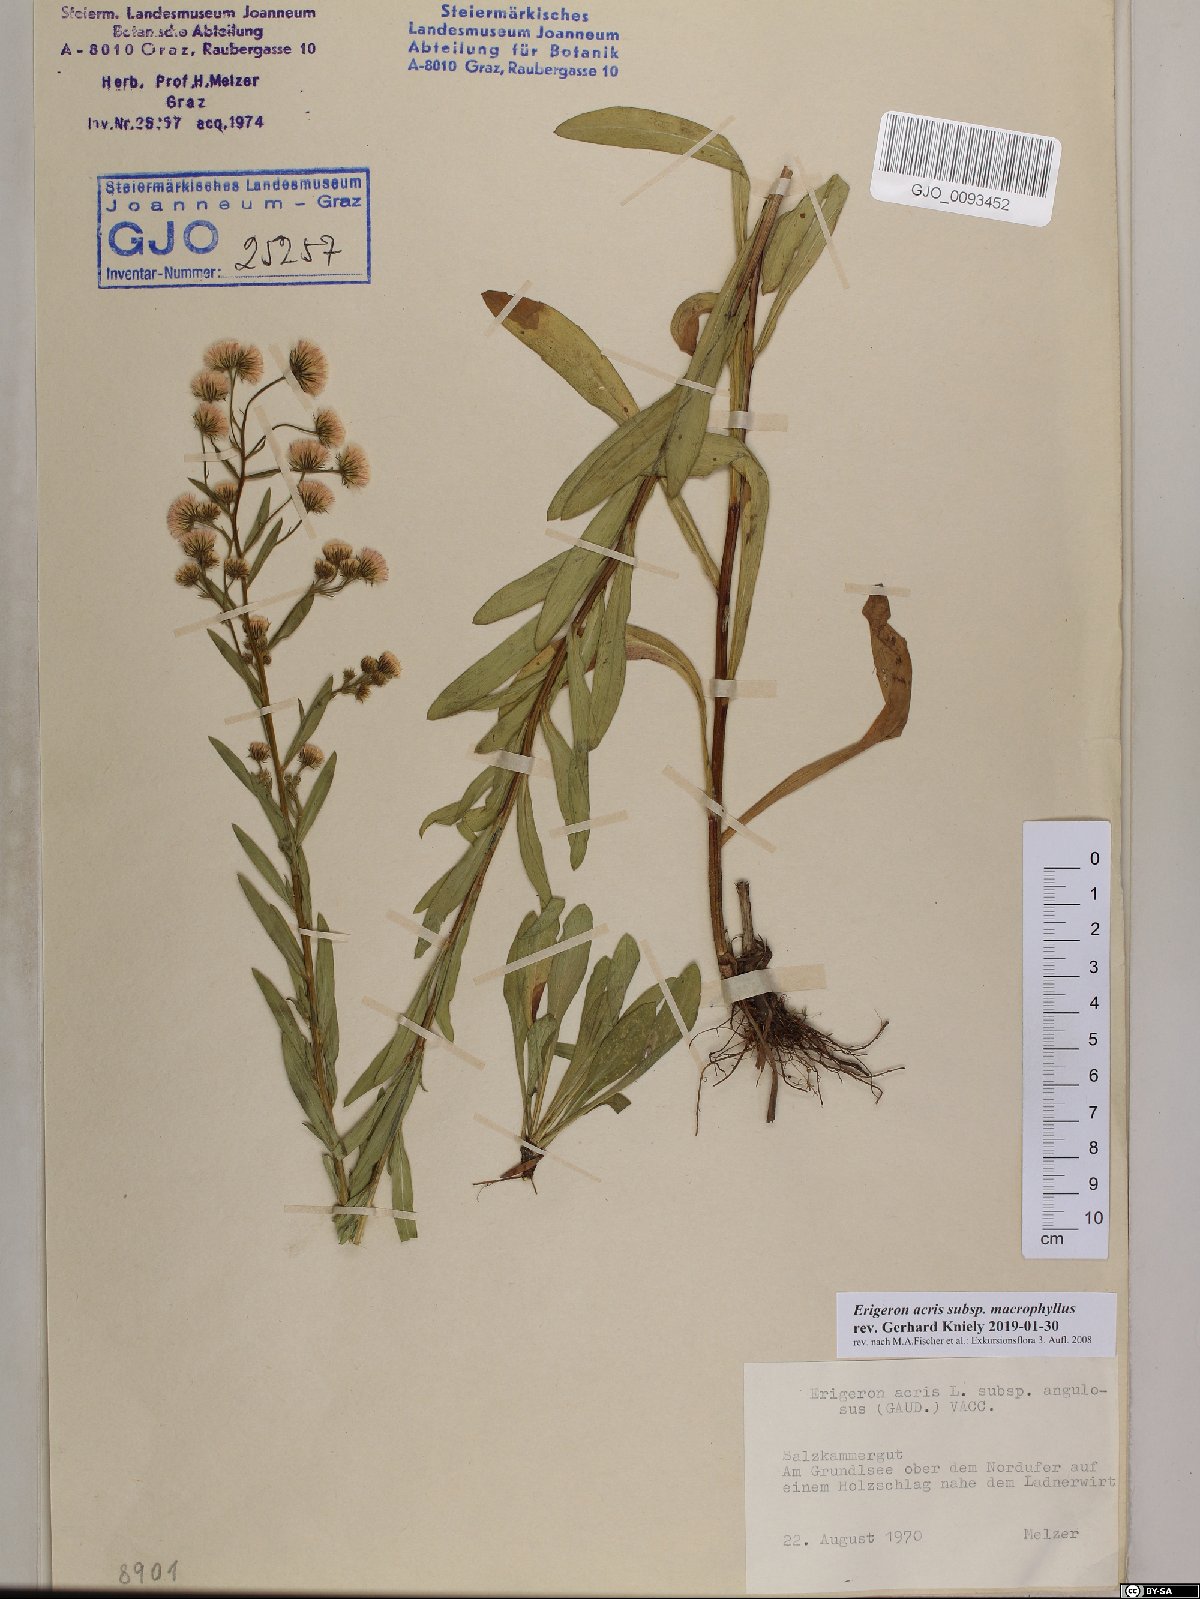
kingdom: Plantae
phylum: Tracheophyta
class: Magnoliopsida
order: Asterales
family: Asteraceae
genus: Erigeron
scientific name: Erigeron macrophyllus
